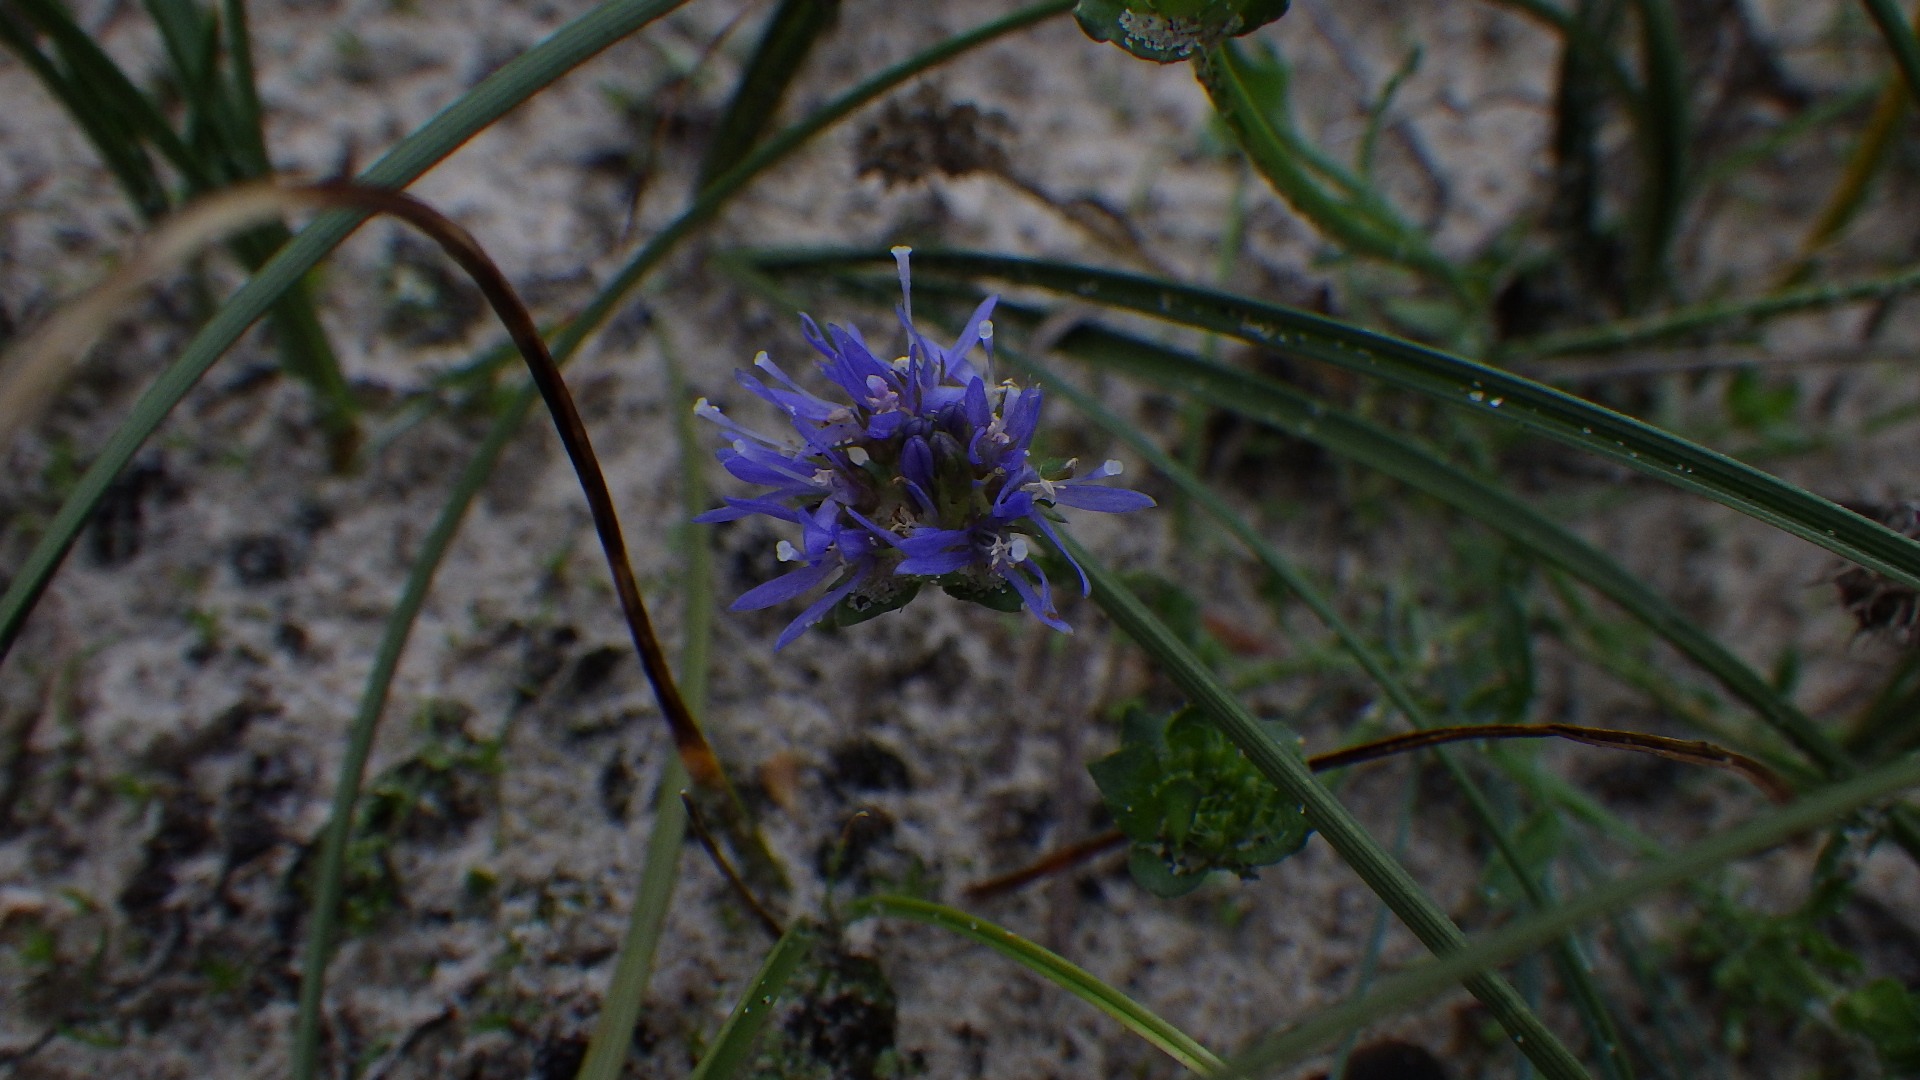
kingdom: Plantae
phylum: Tracheophyta
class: Magnoliopsida
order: Asterales
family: Campanulaceae
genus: Jasione
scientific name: Jasione montana
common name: Blåmunke
